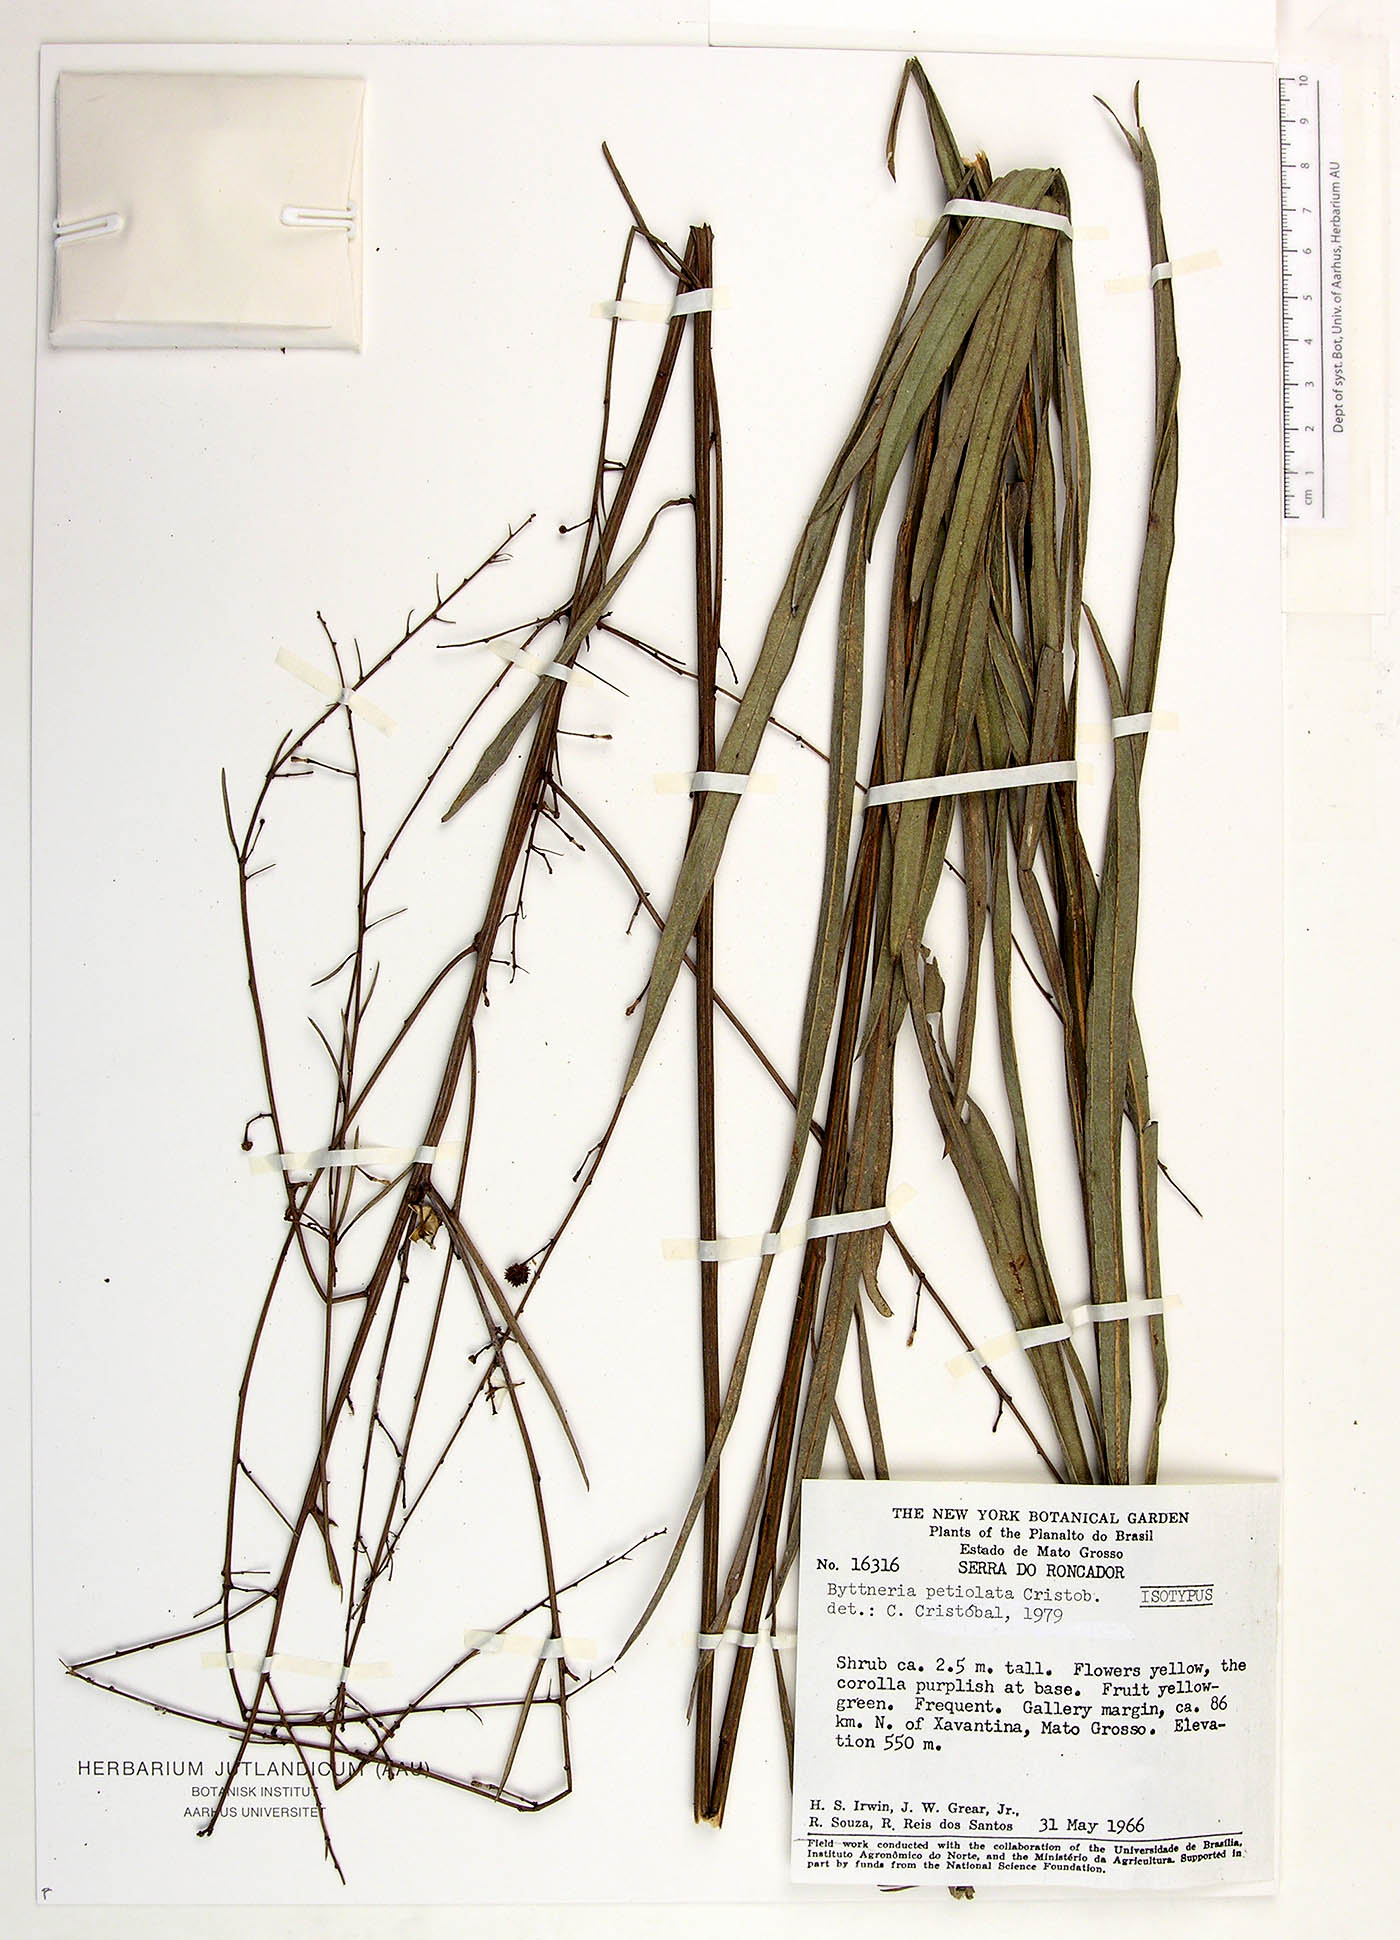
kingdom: Plantae
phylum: Tracheophyta
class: Magnoliopsida
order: Malvales
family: Malvaceae
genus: Byttneria
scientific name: Byttneria petiolata
